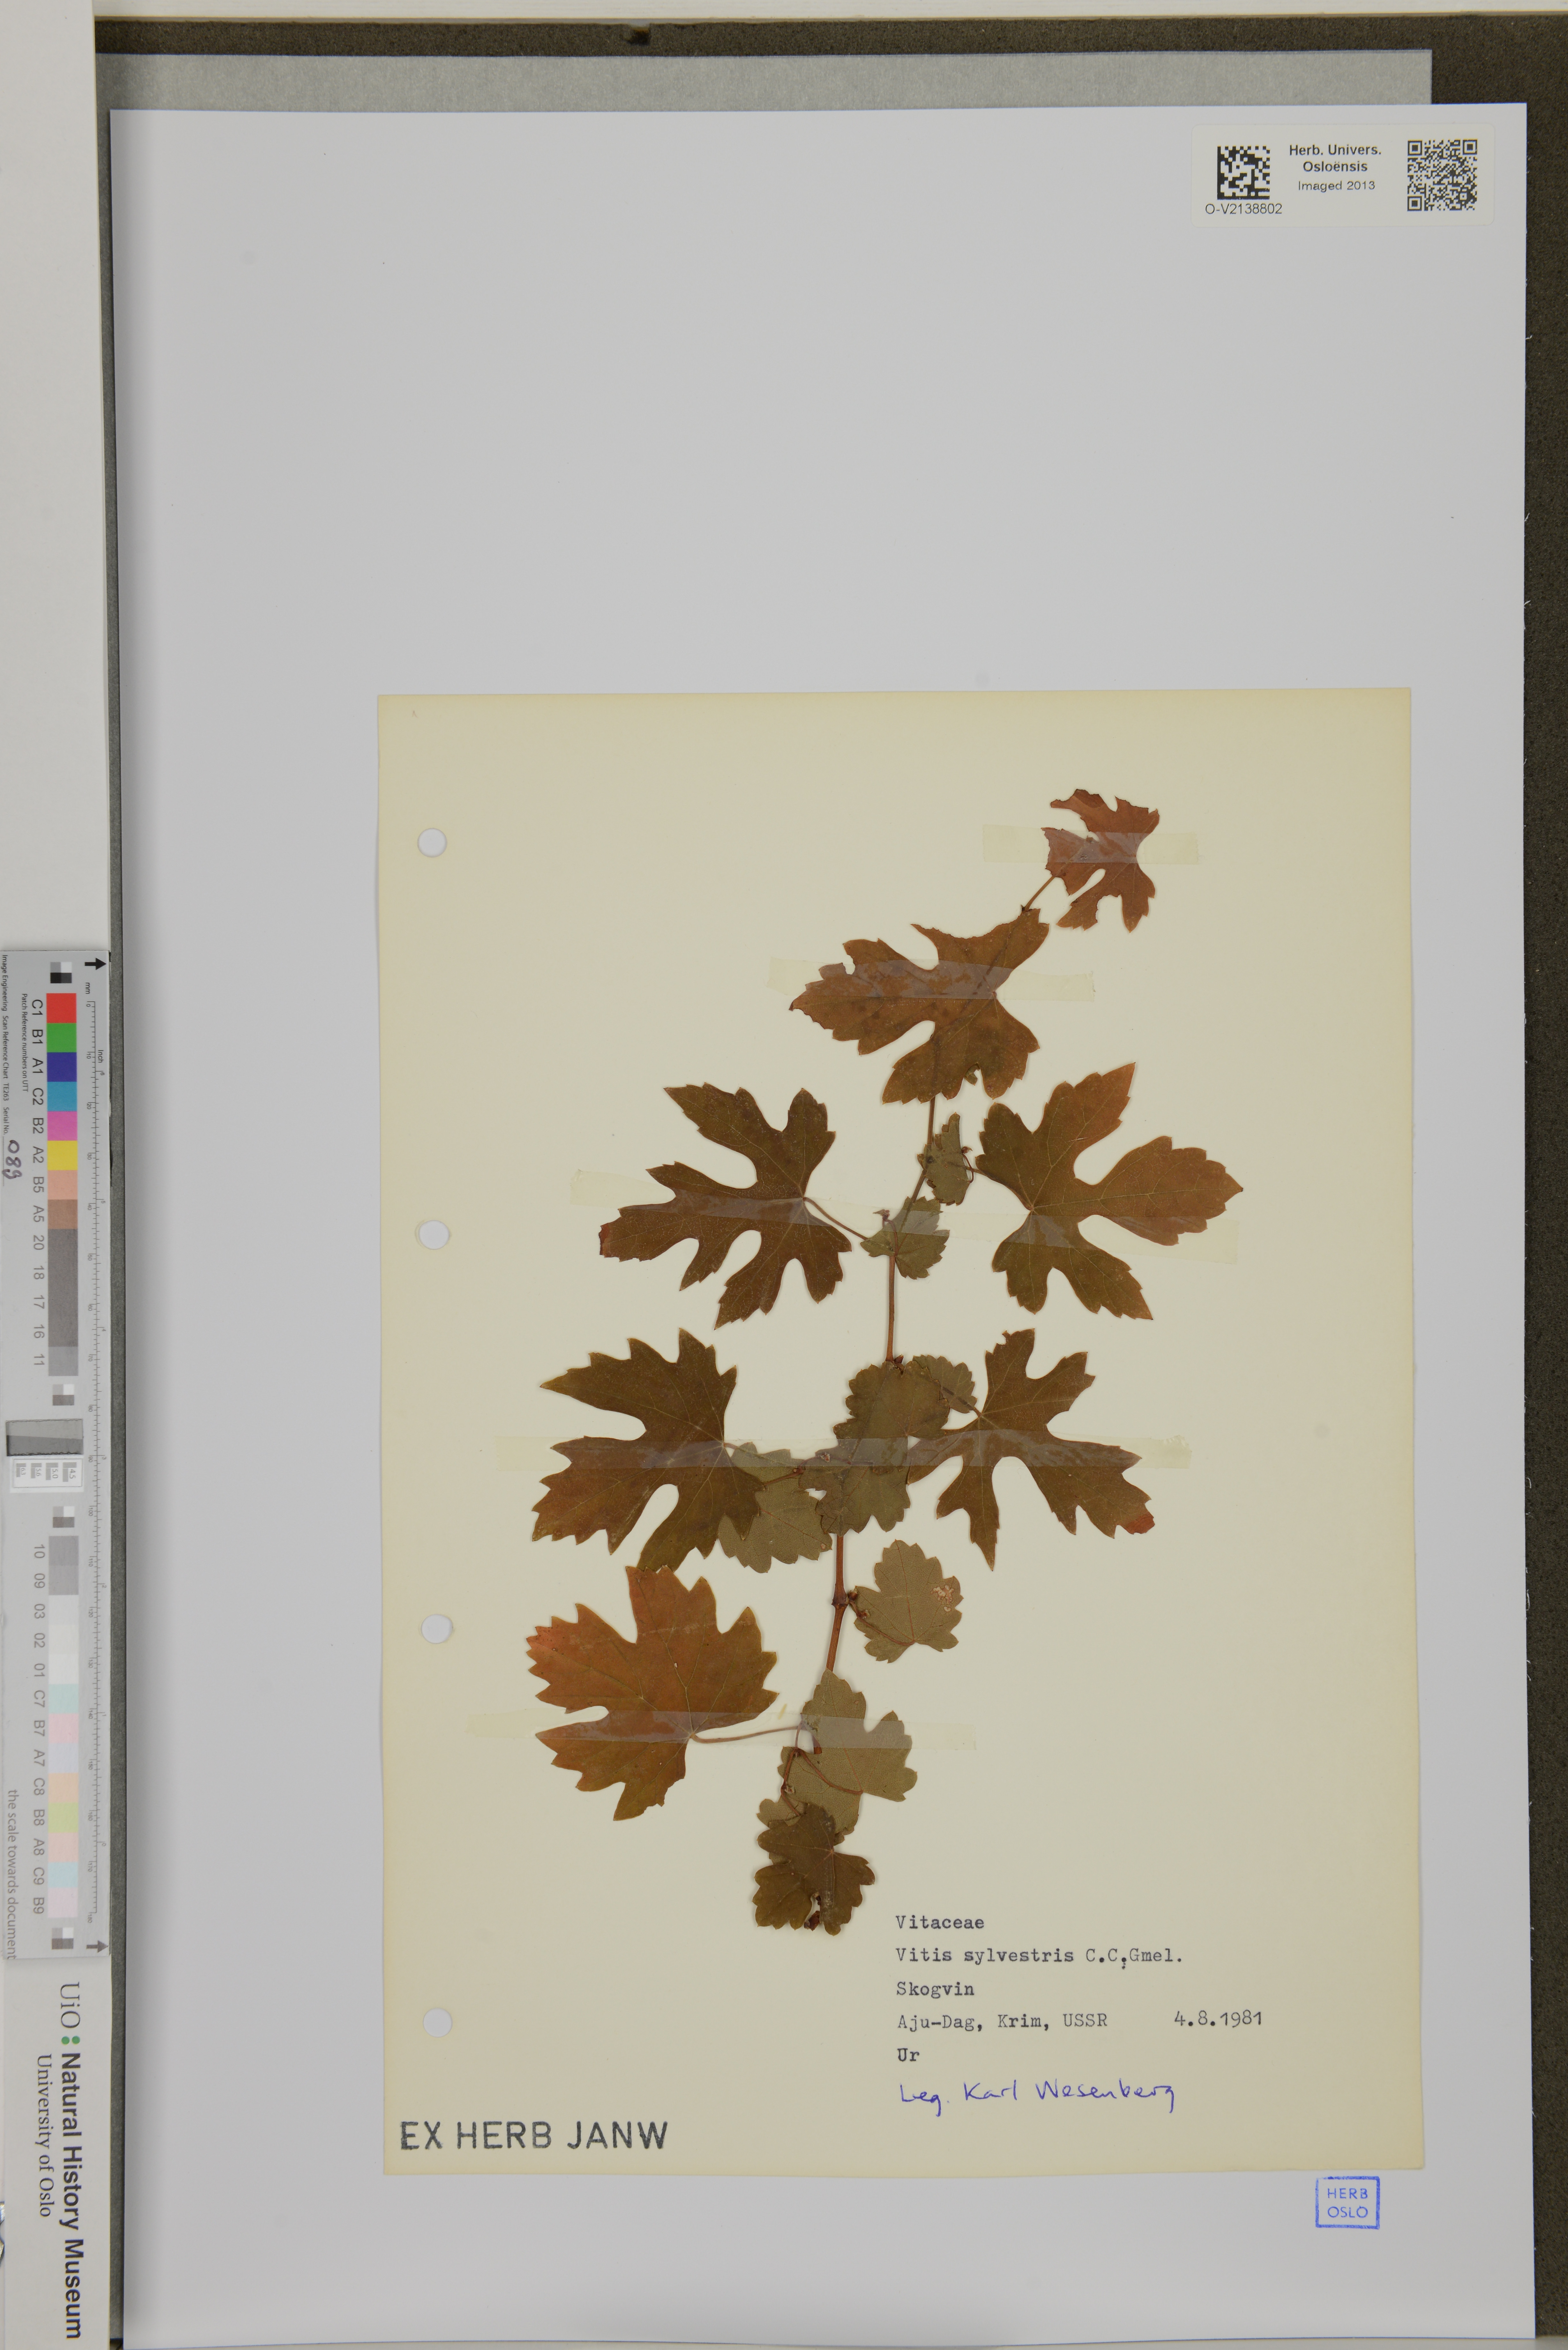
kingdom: Plantae
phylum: Tracheophyta
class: Magnoliopsida
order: Vitales
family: Vitaceae
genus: Vitis
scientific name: Vitis sylvestris
